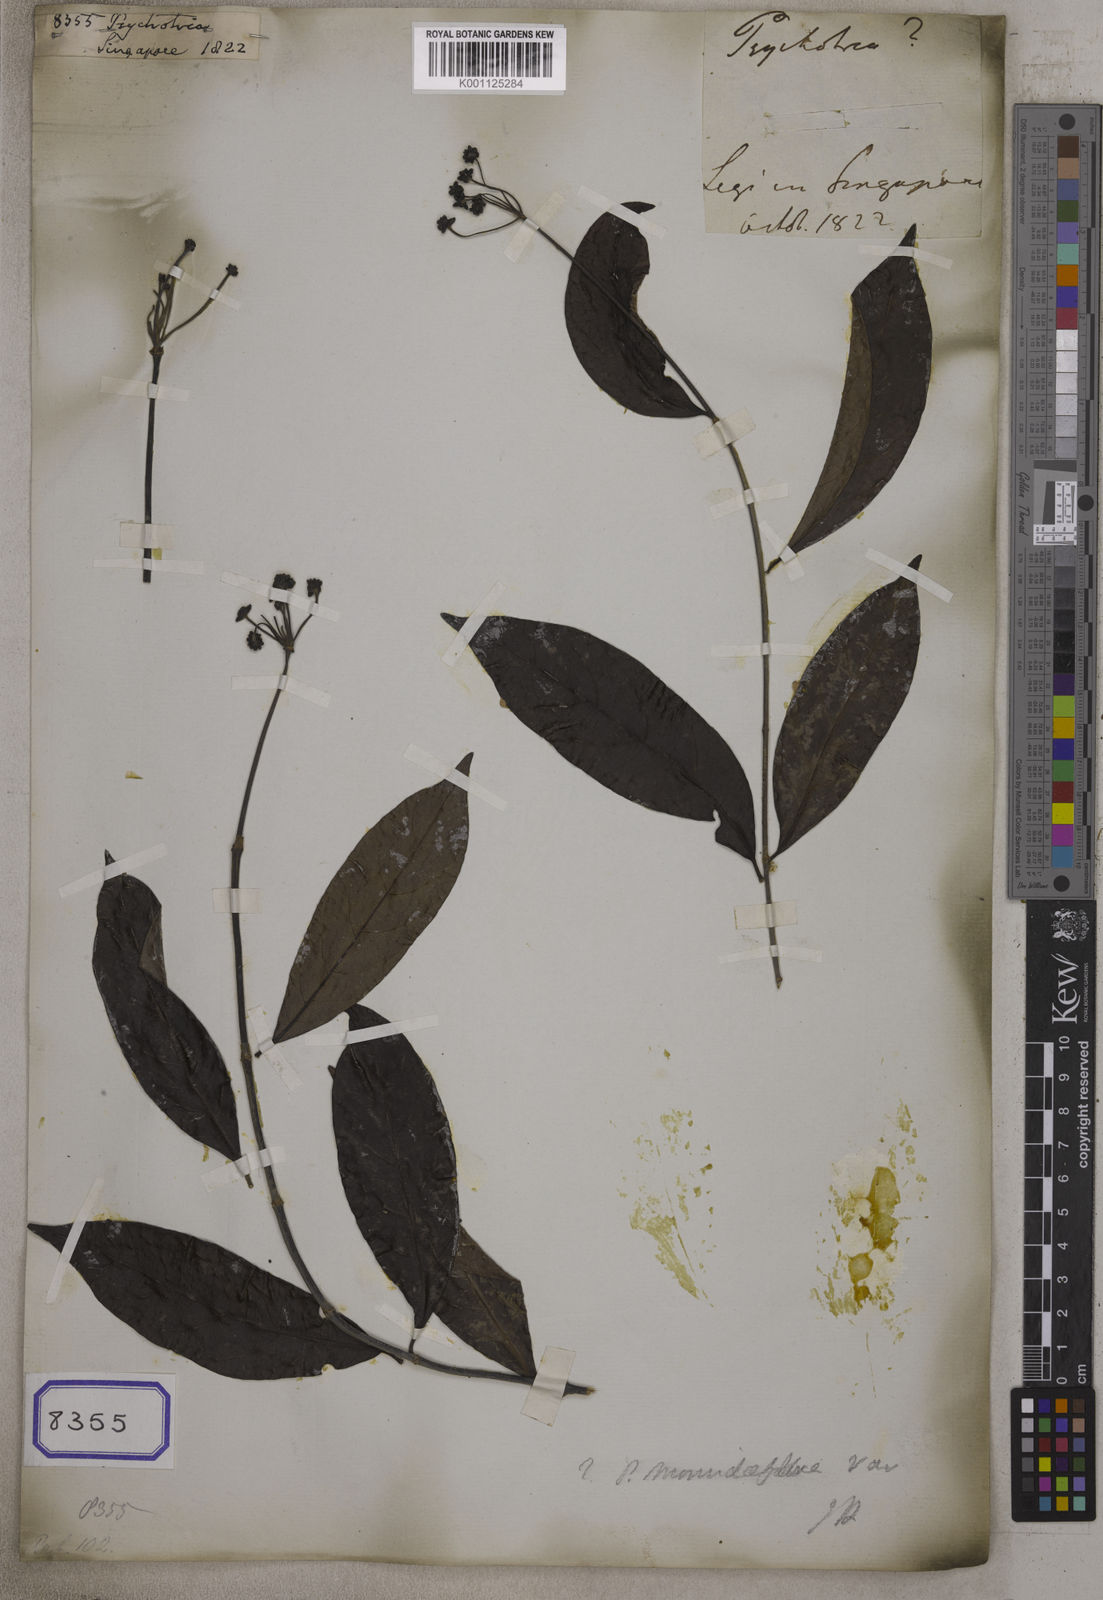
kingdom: Plantae
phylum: Tracheophyta
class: Magnoliopsida
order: Gentianales
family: Rubiaceae
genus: Psychotria
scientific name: Psychotria
